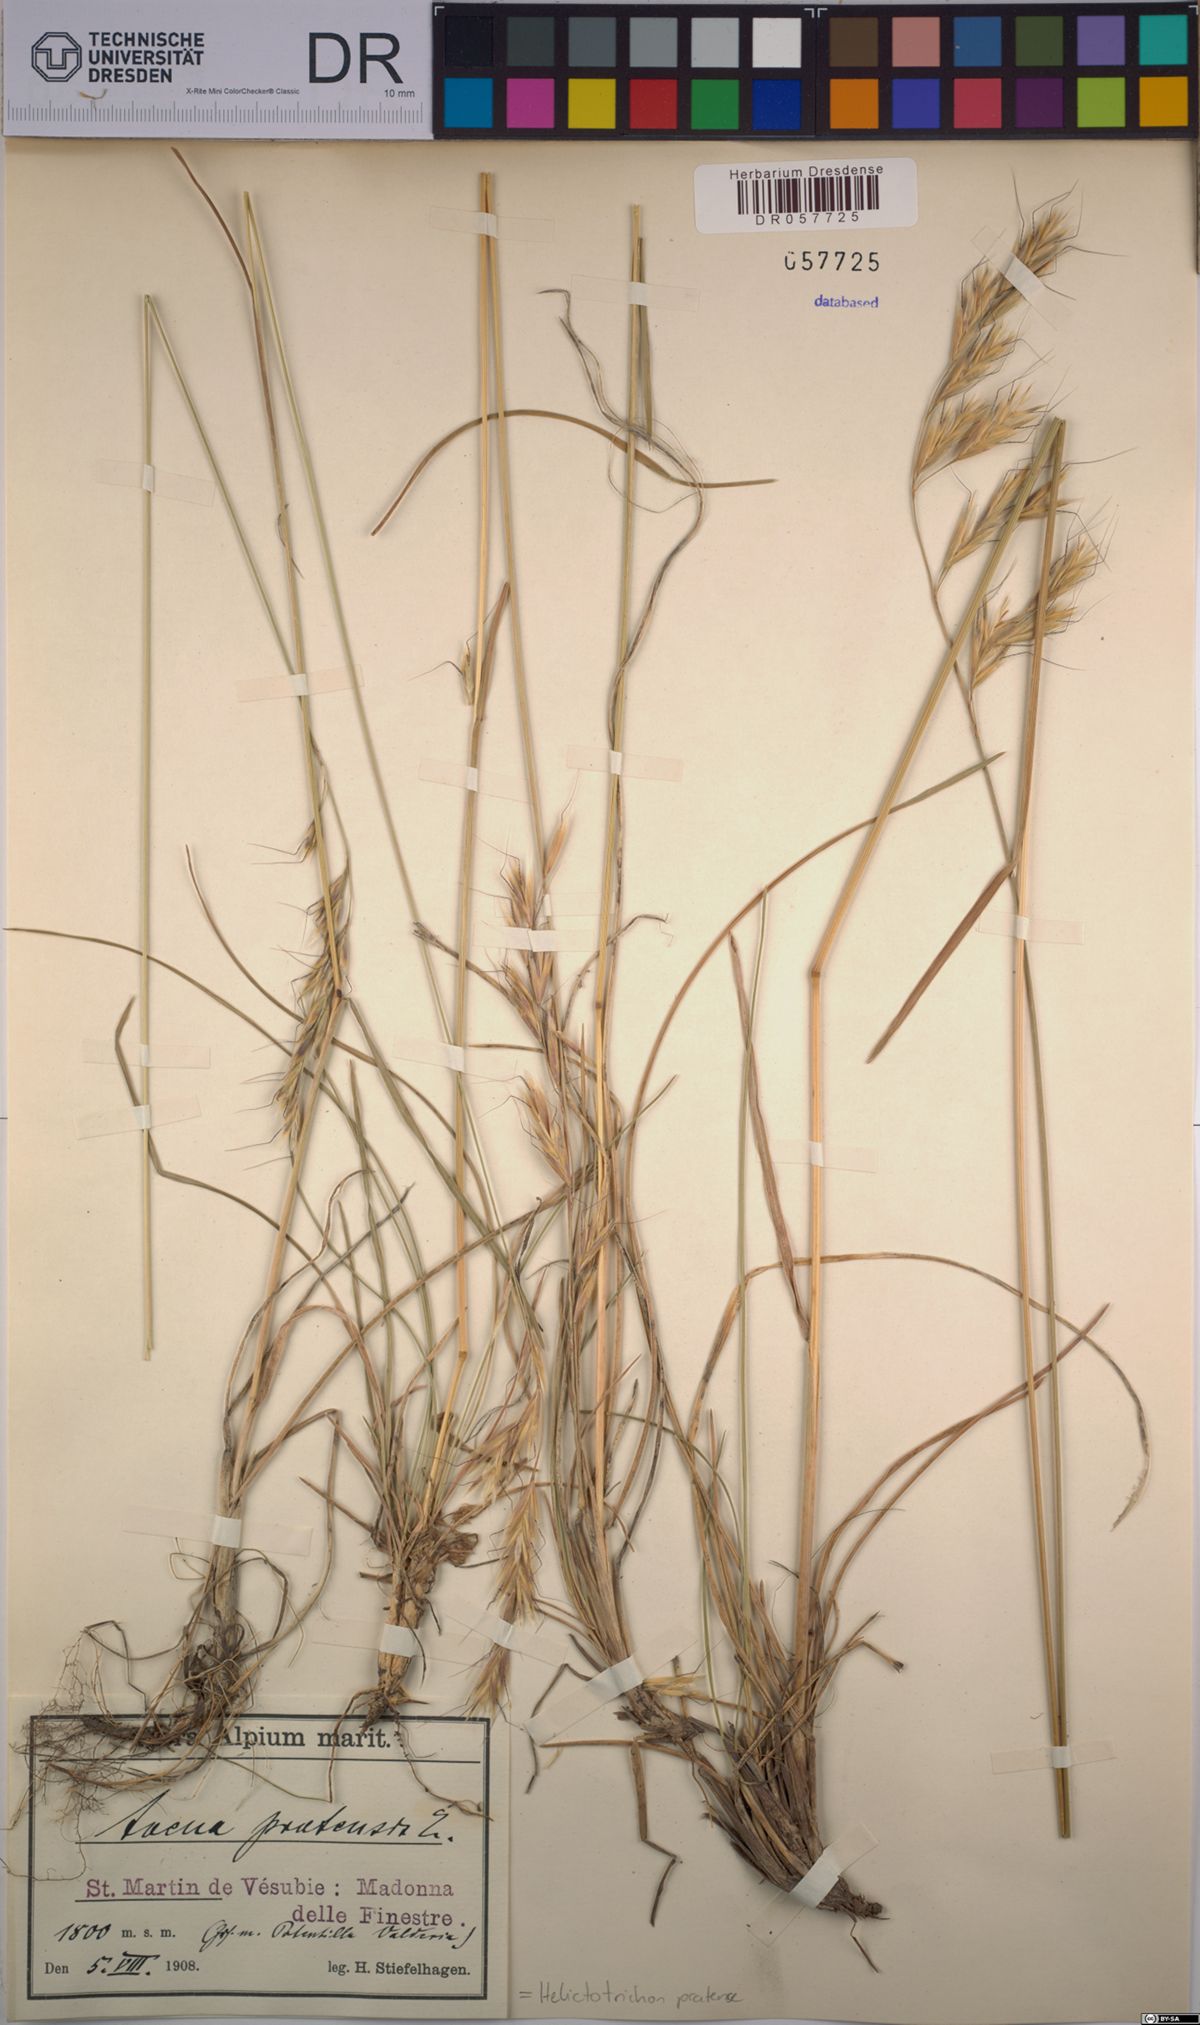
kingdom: Plantae
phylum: Tracheophyta
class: Liliopsida
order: Poales
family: Poaceae
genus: Helictochloa
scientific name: Helictochloa pratensis
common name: Meadow oat grass
